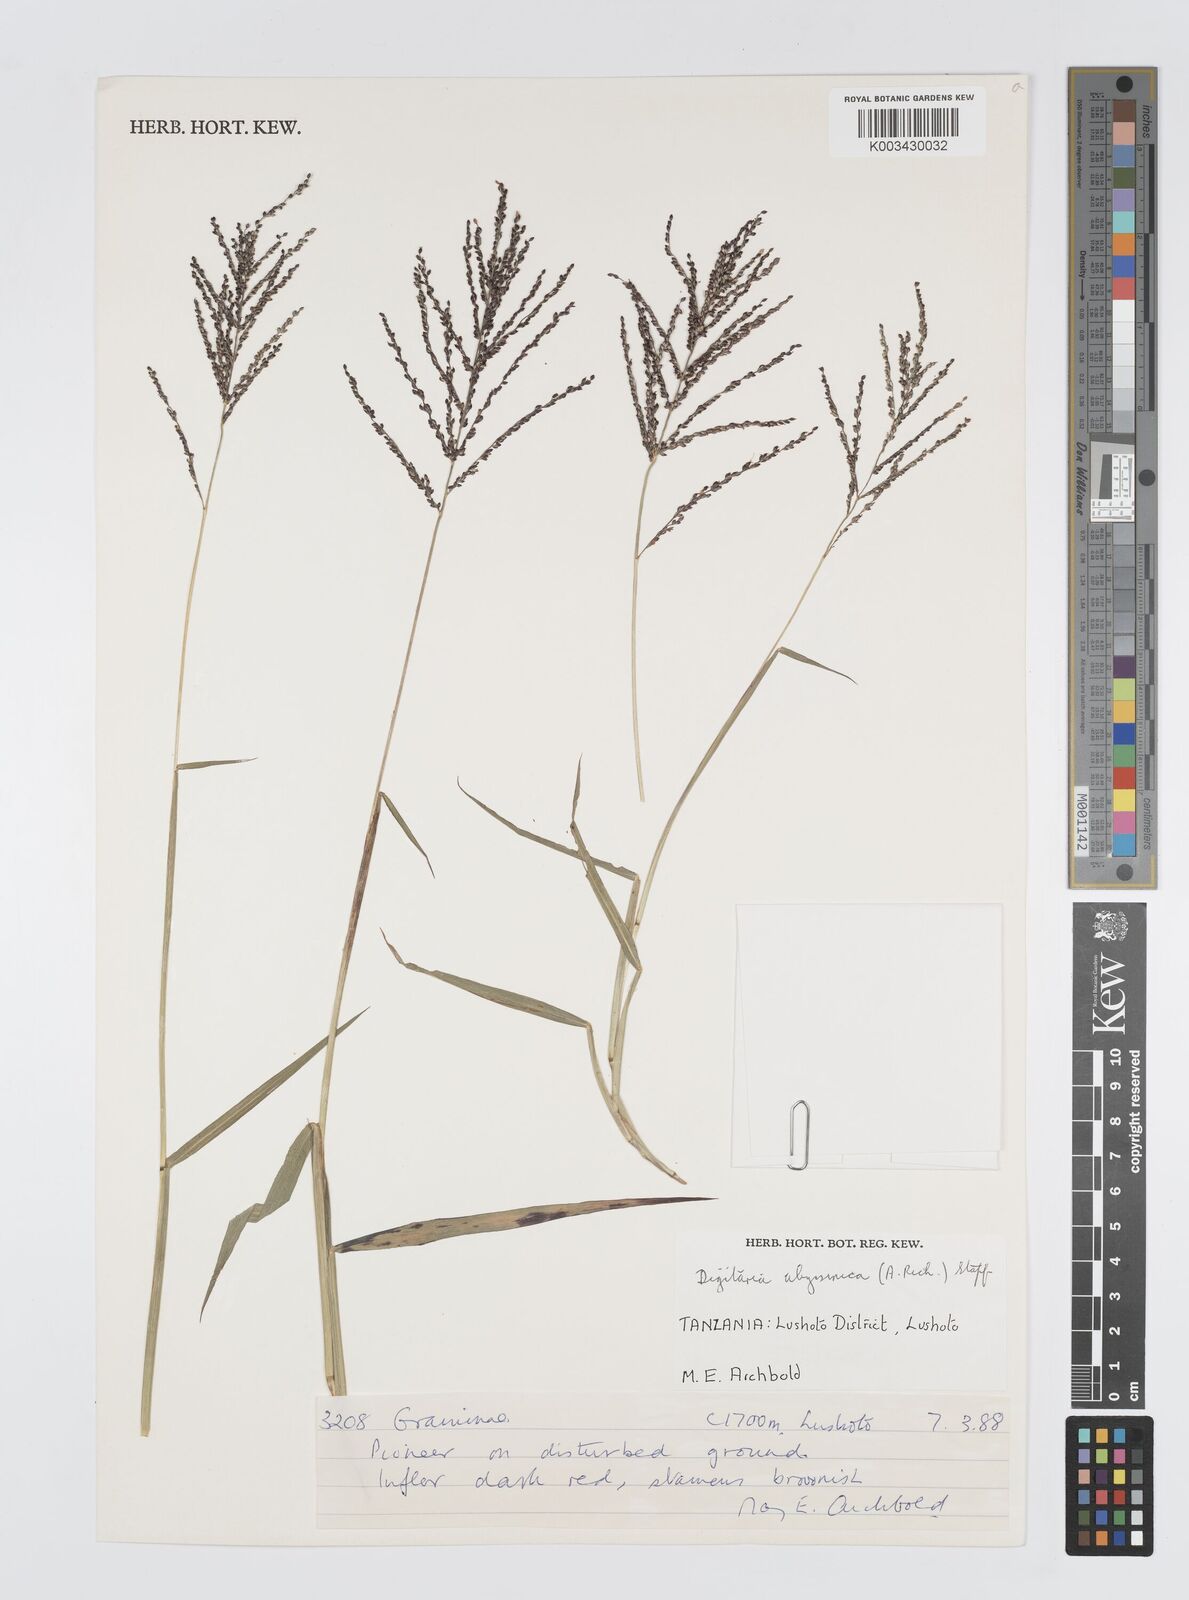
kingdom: Plantae
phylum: Tracheophyta
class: Liliopsida
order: Poales
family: Poaceae
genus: Digitaria
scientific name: Digitaria abyssinica
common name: African couchgrass
